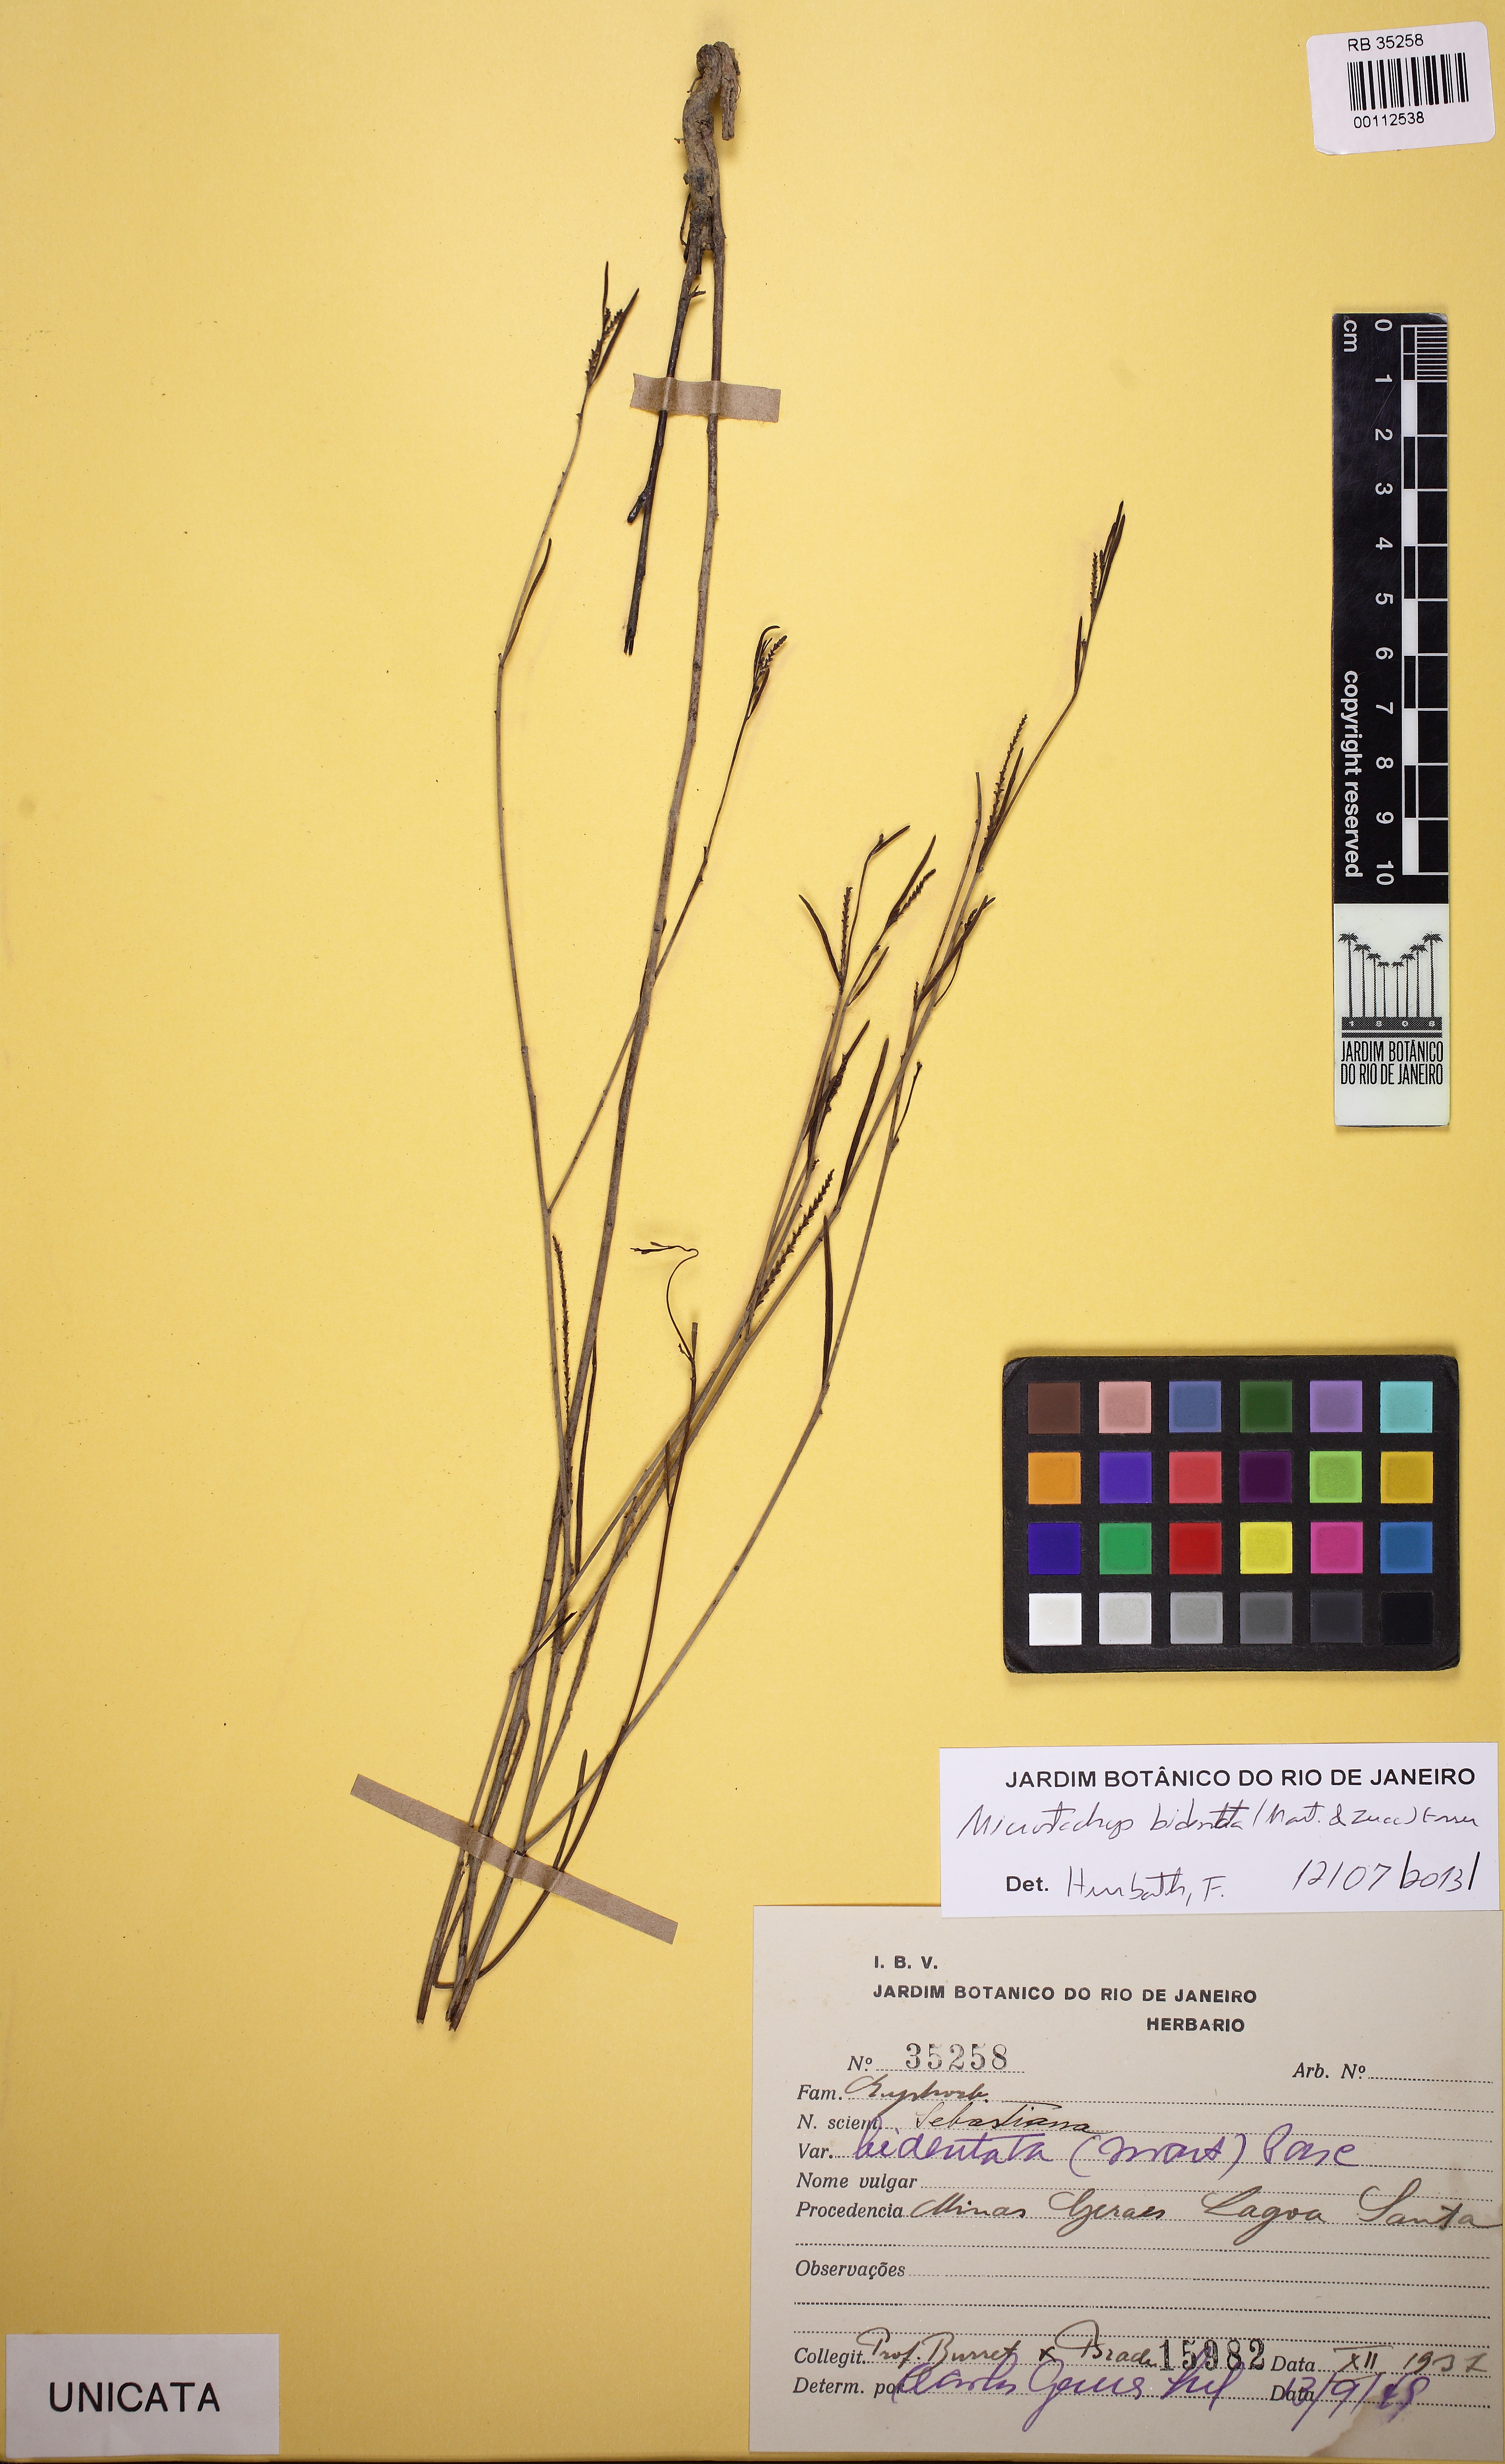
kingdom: Plantae
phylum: Tracheophyta
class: Magnoliopsida
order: Malpighiales
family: Euphorbiaceae
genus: Microstachys
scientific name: Microstachys bidentata
